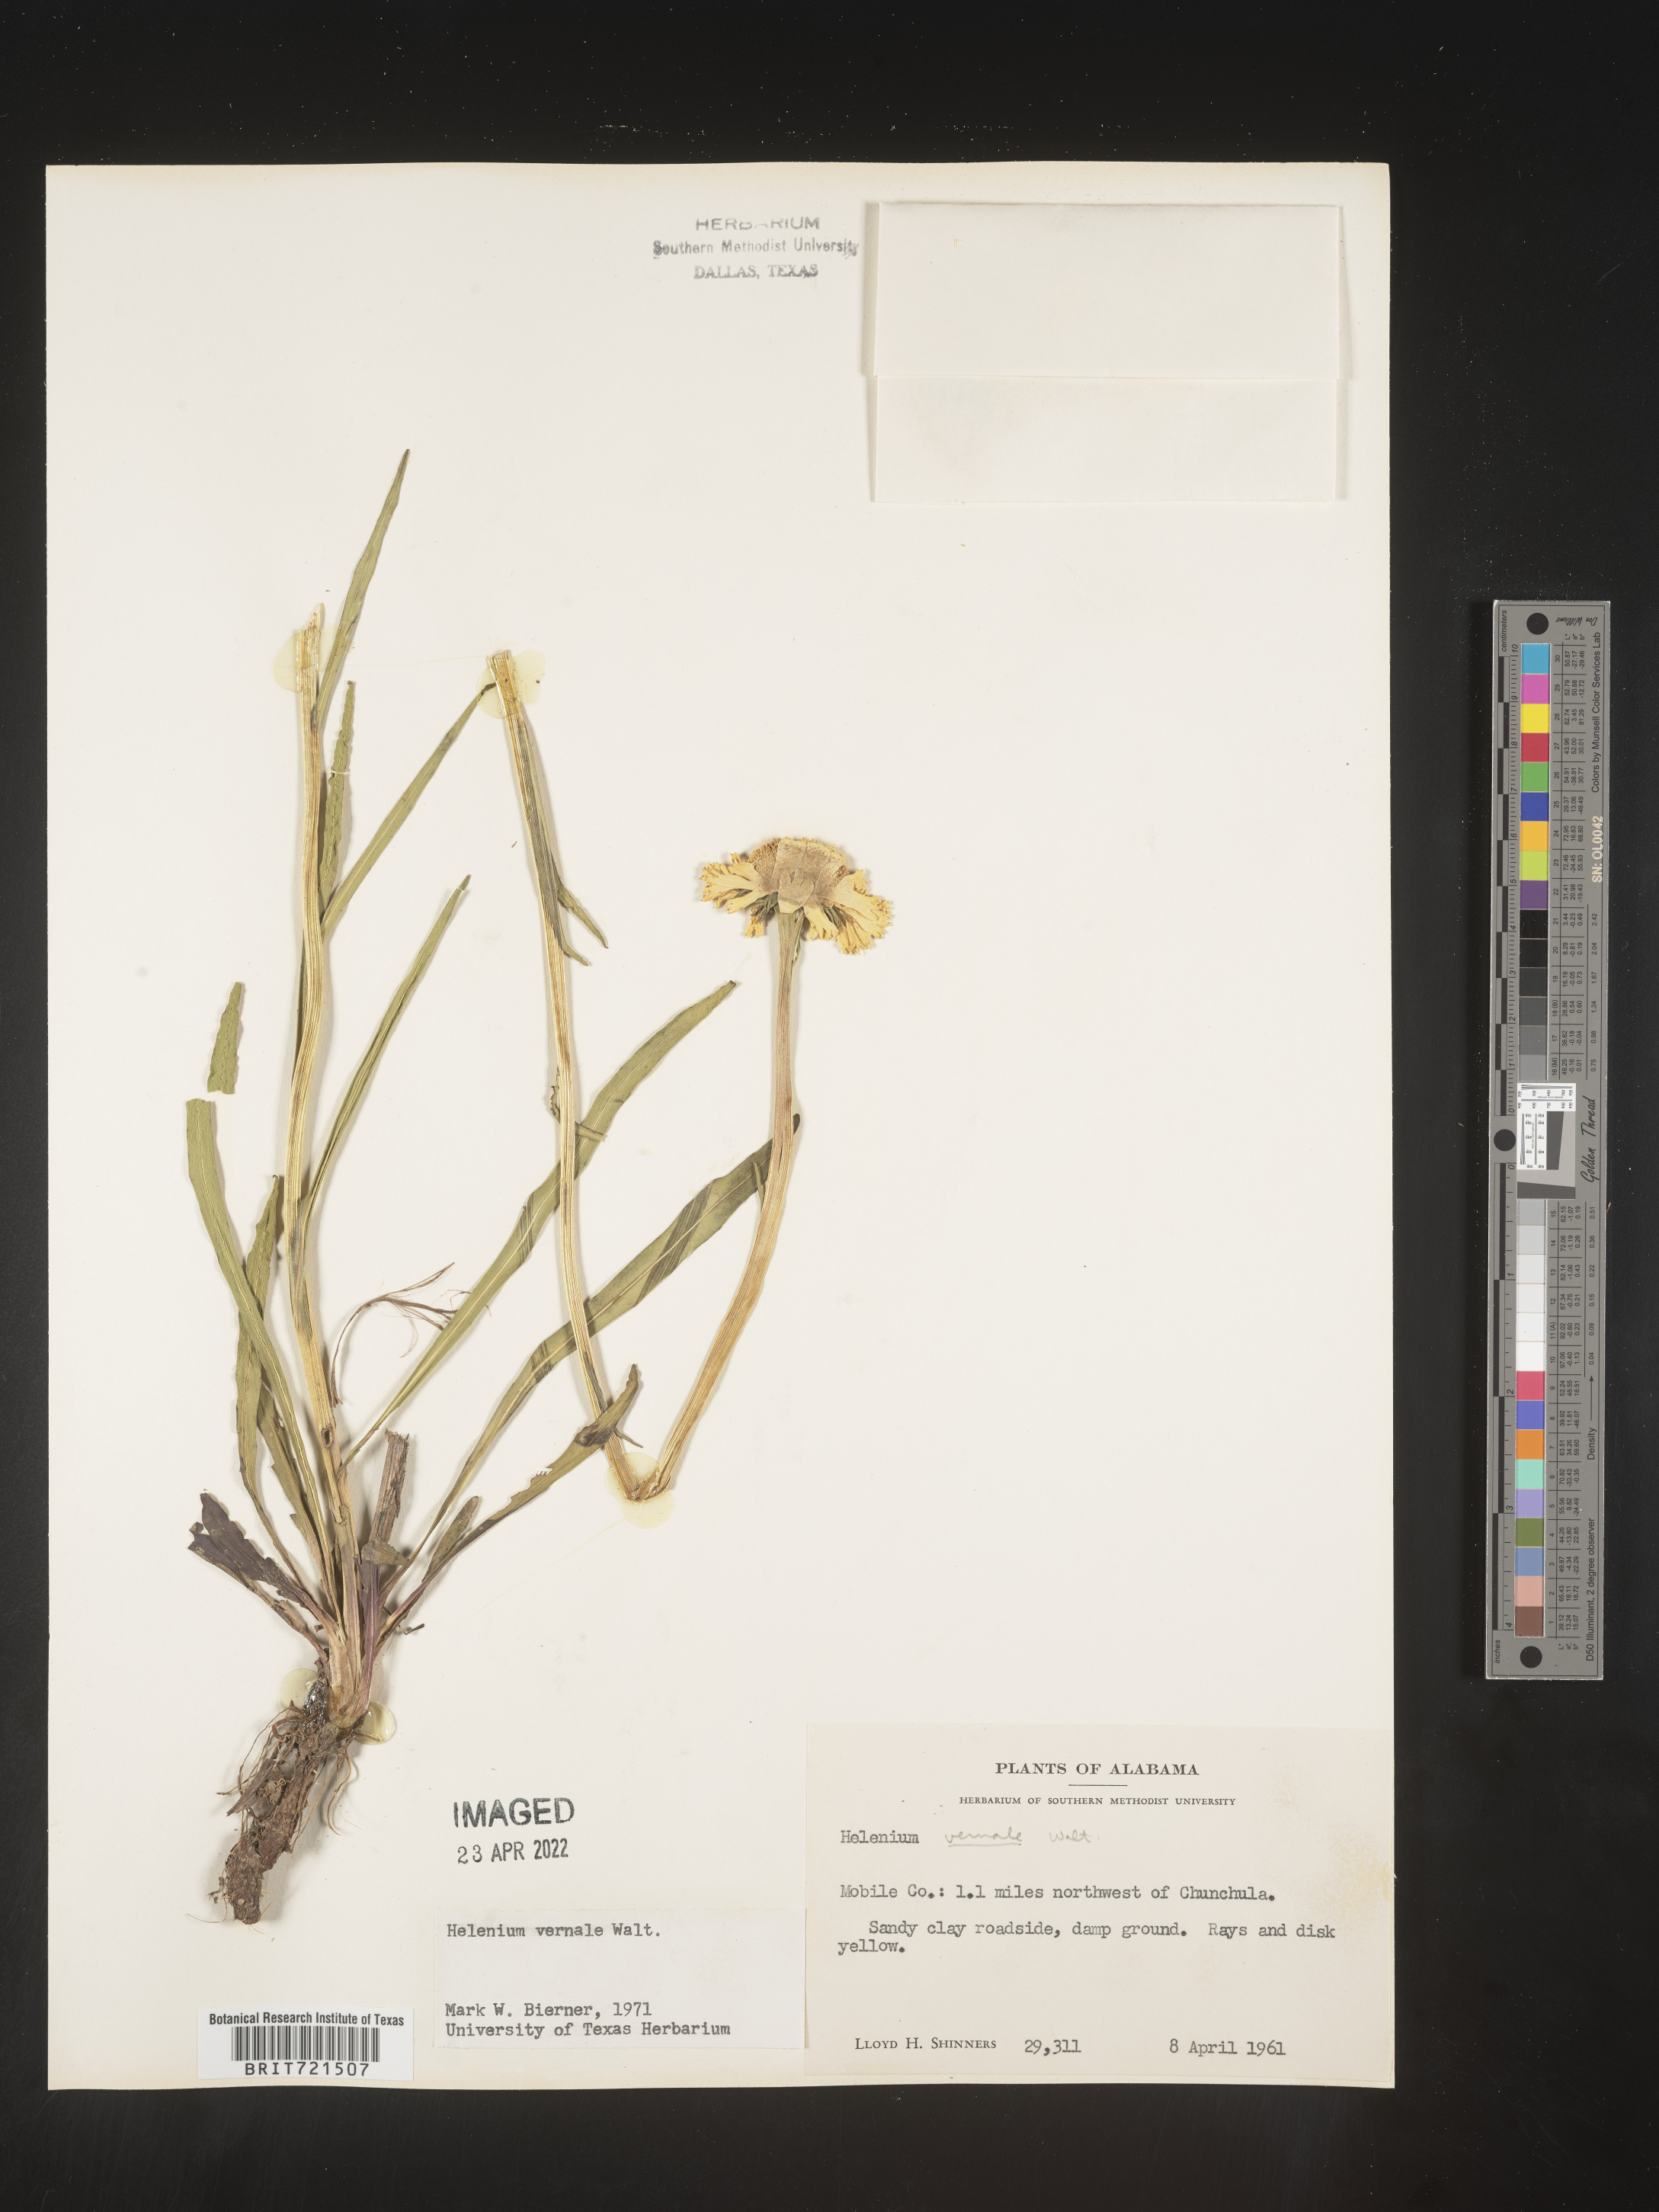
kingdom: Plantae
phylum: Tracheophyta
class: Magnoliopsida
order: Asterales
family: Asteraceae
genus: Helenium
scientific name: Helenium vernale
